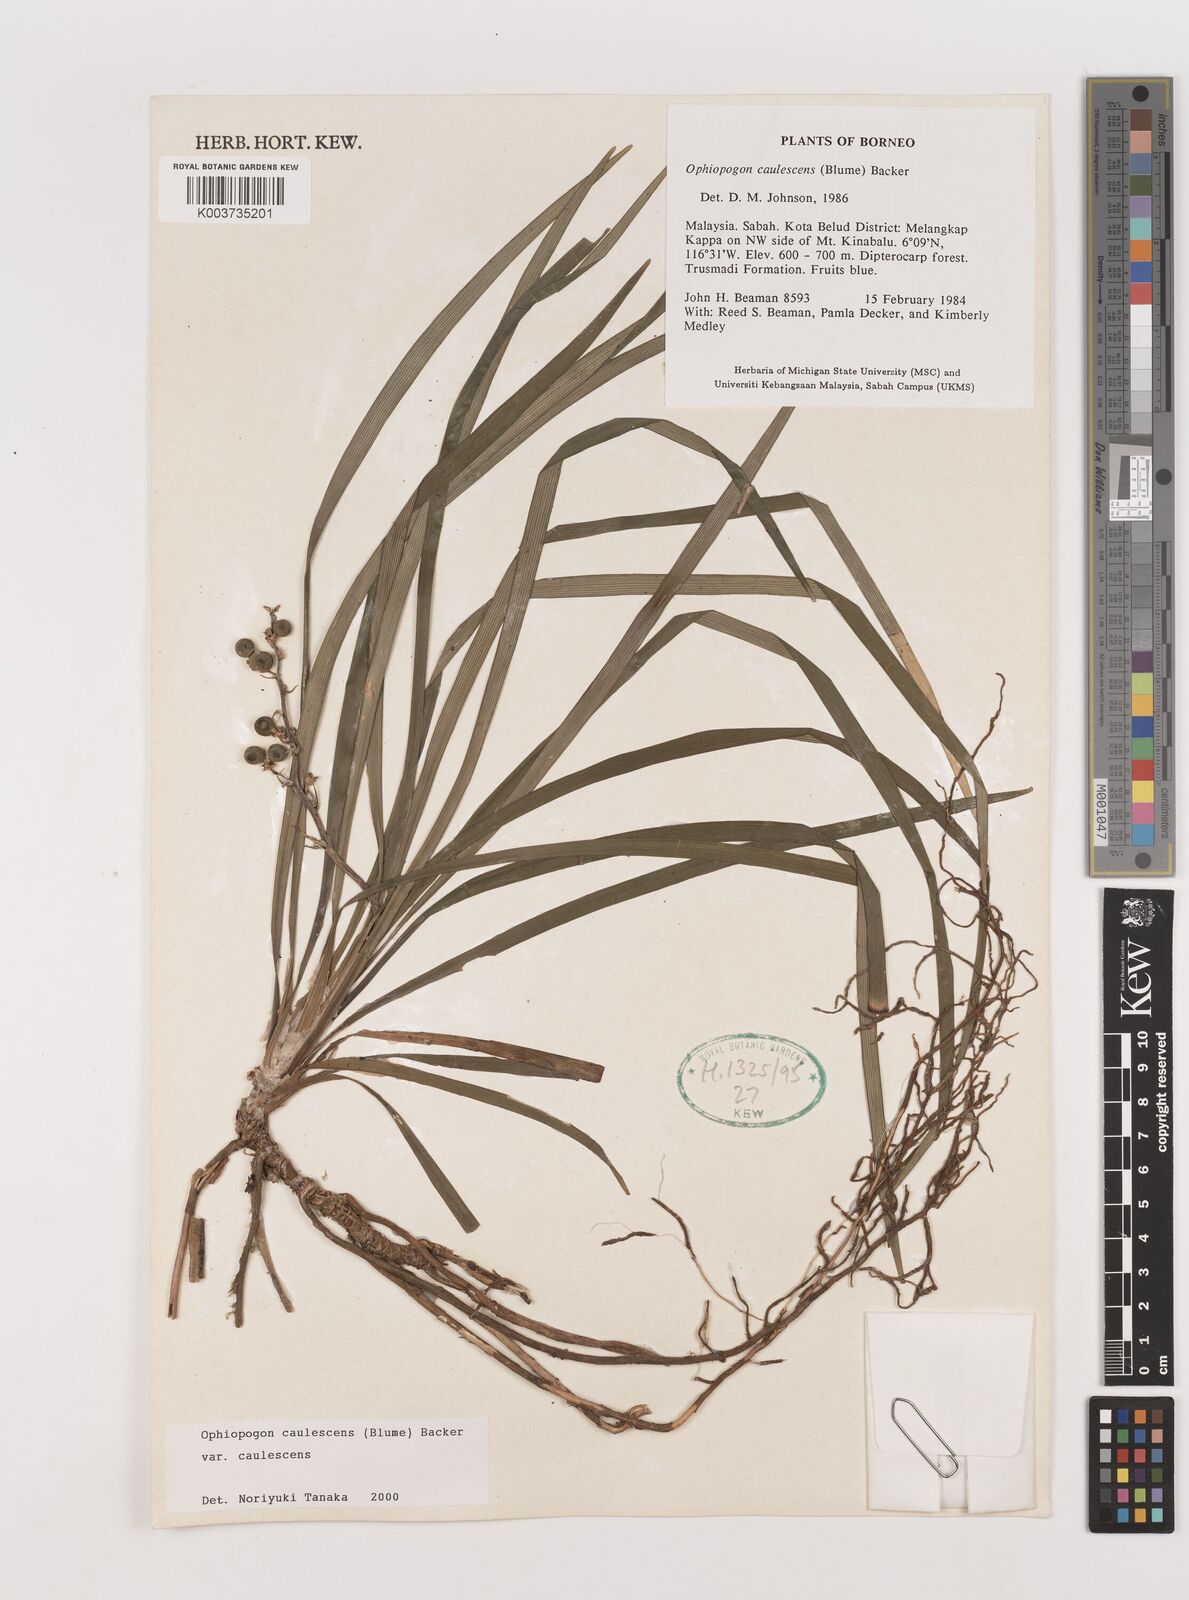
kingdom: Plantae
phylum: Tracheophyta
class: Liliopsida
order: Asparagales
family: Asparagaceae
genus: Ophiopogon
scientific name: Ophiopogon caulescens
